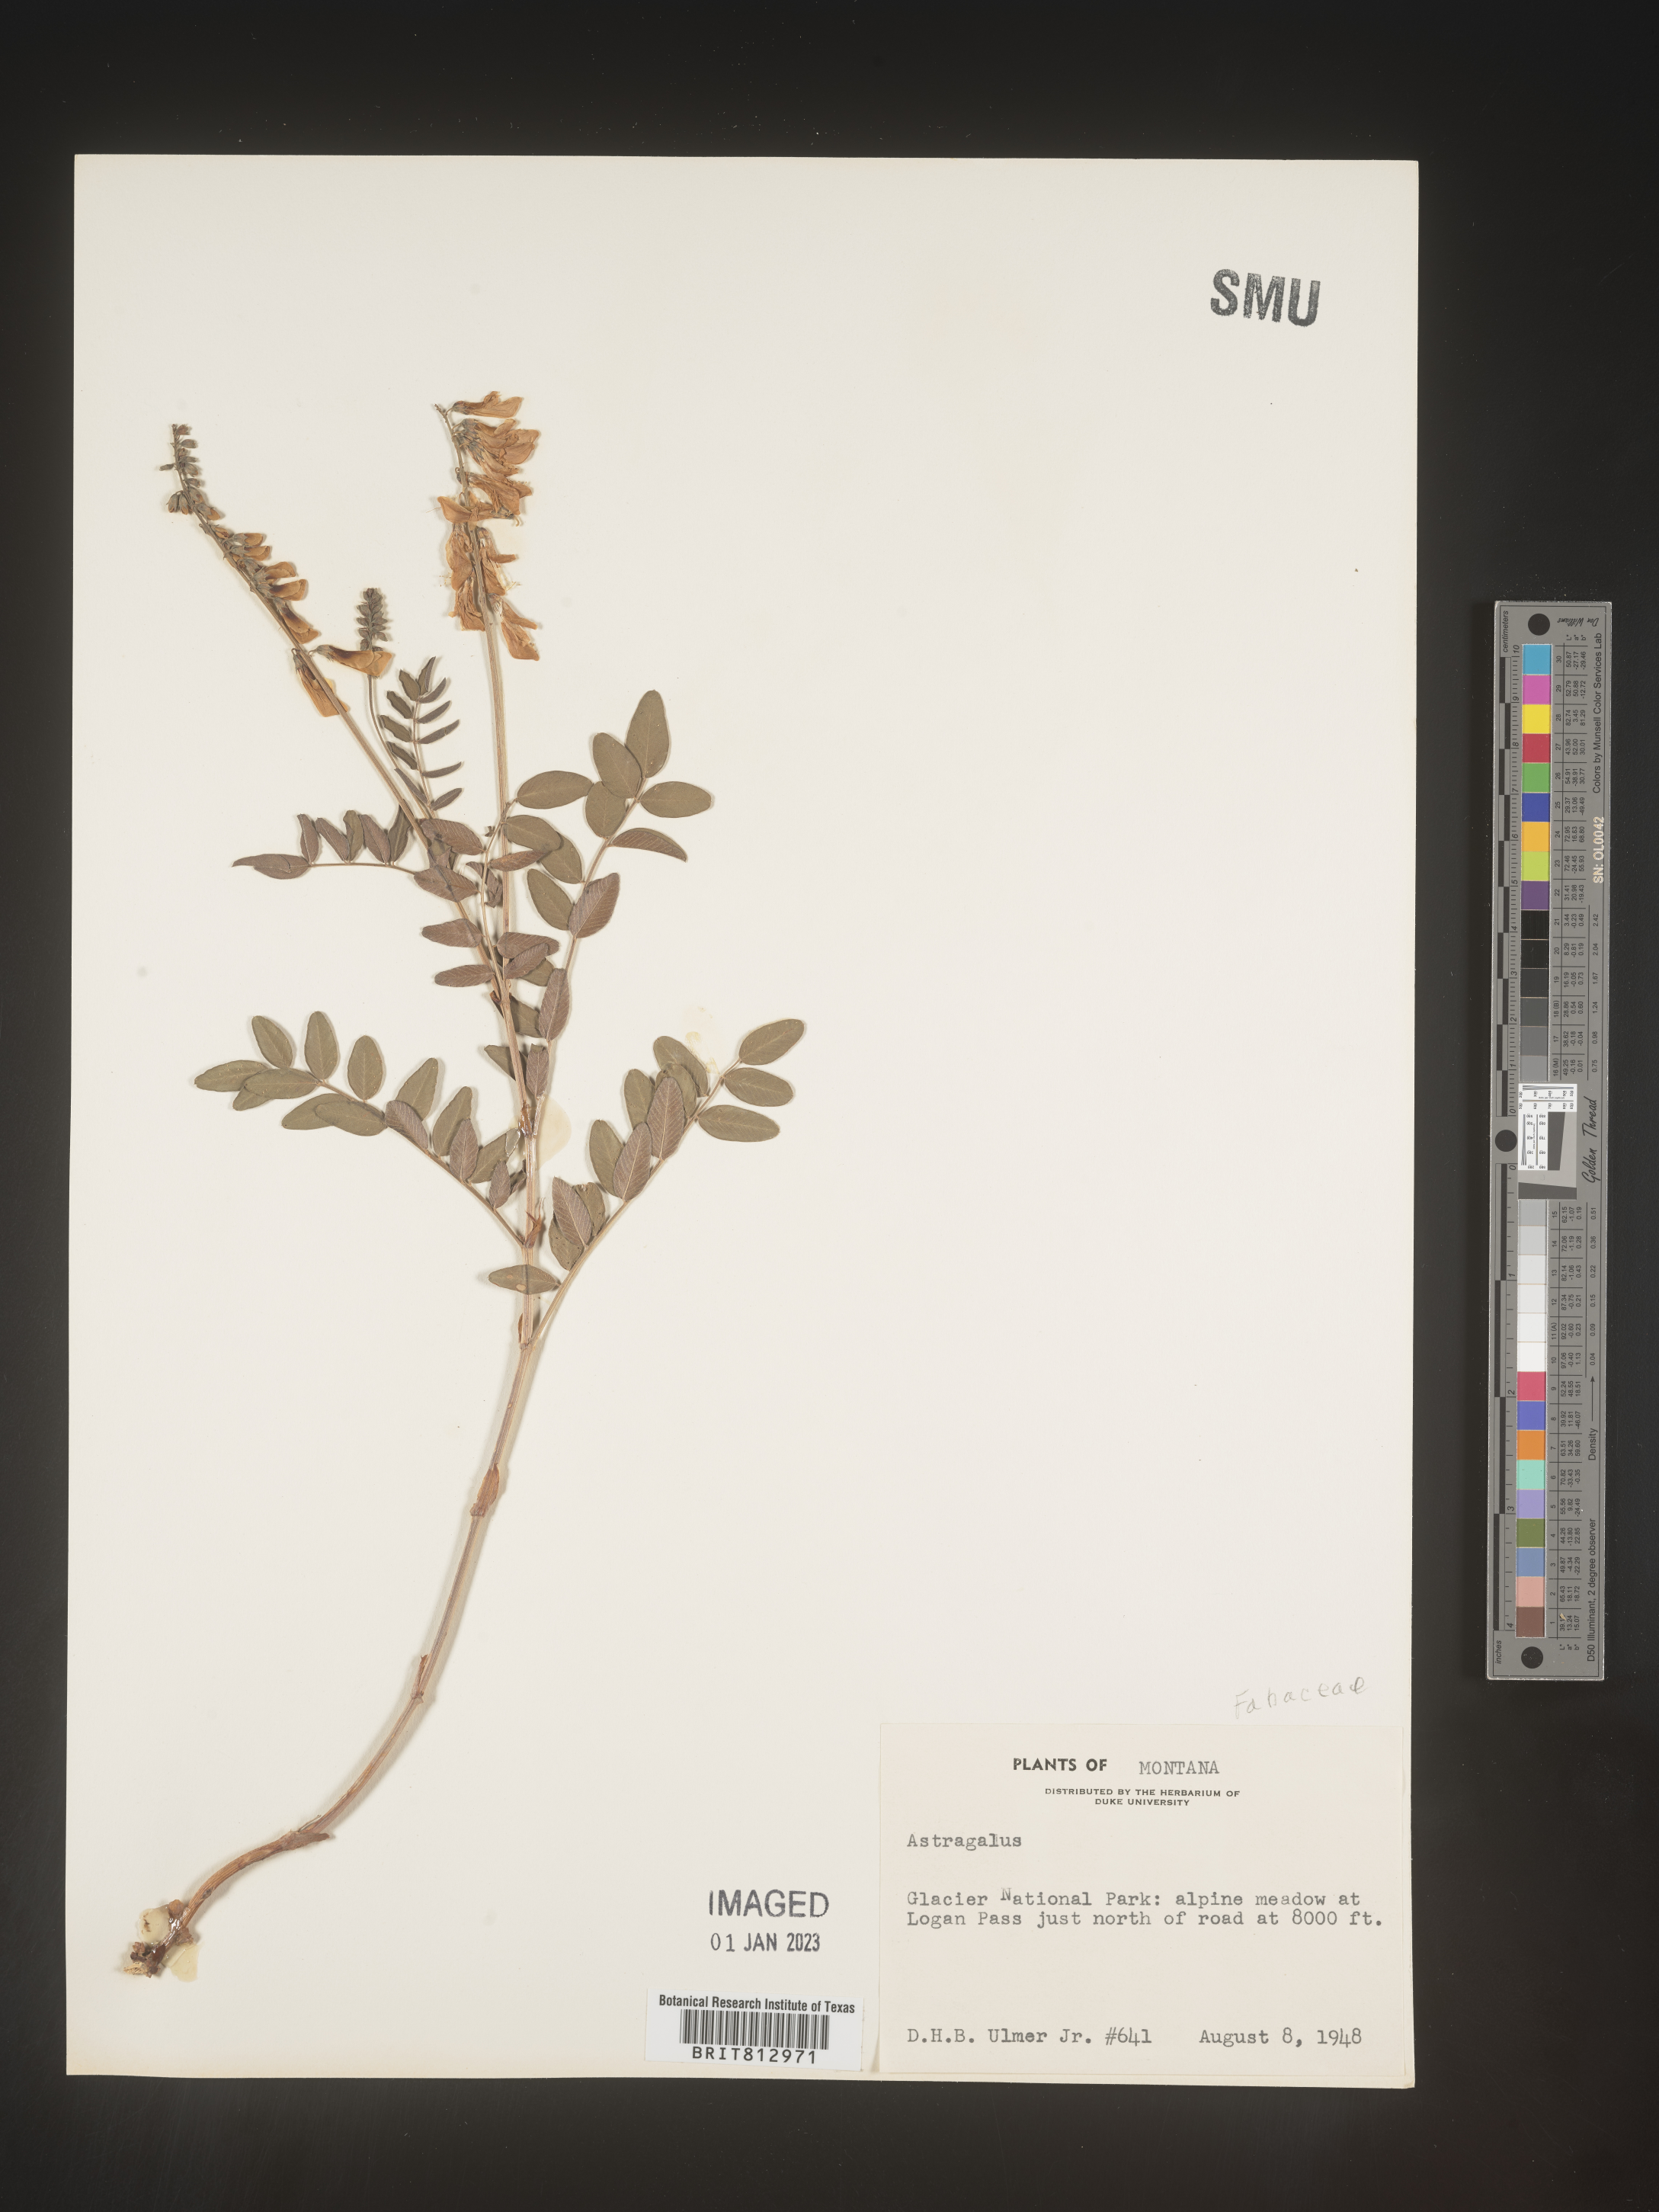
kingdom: Plantae
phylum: Tracheophyta
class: Magnoliopsida
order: Fabales
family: Fabaceae
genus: Astragalus
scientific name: Astragalus
